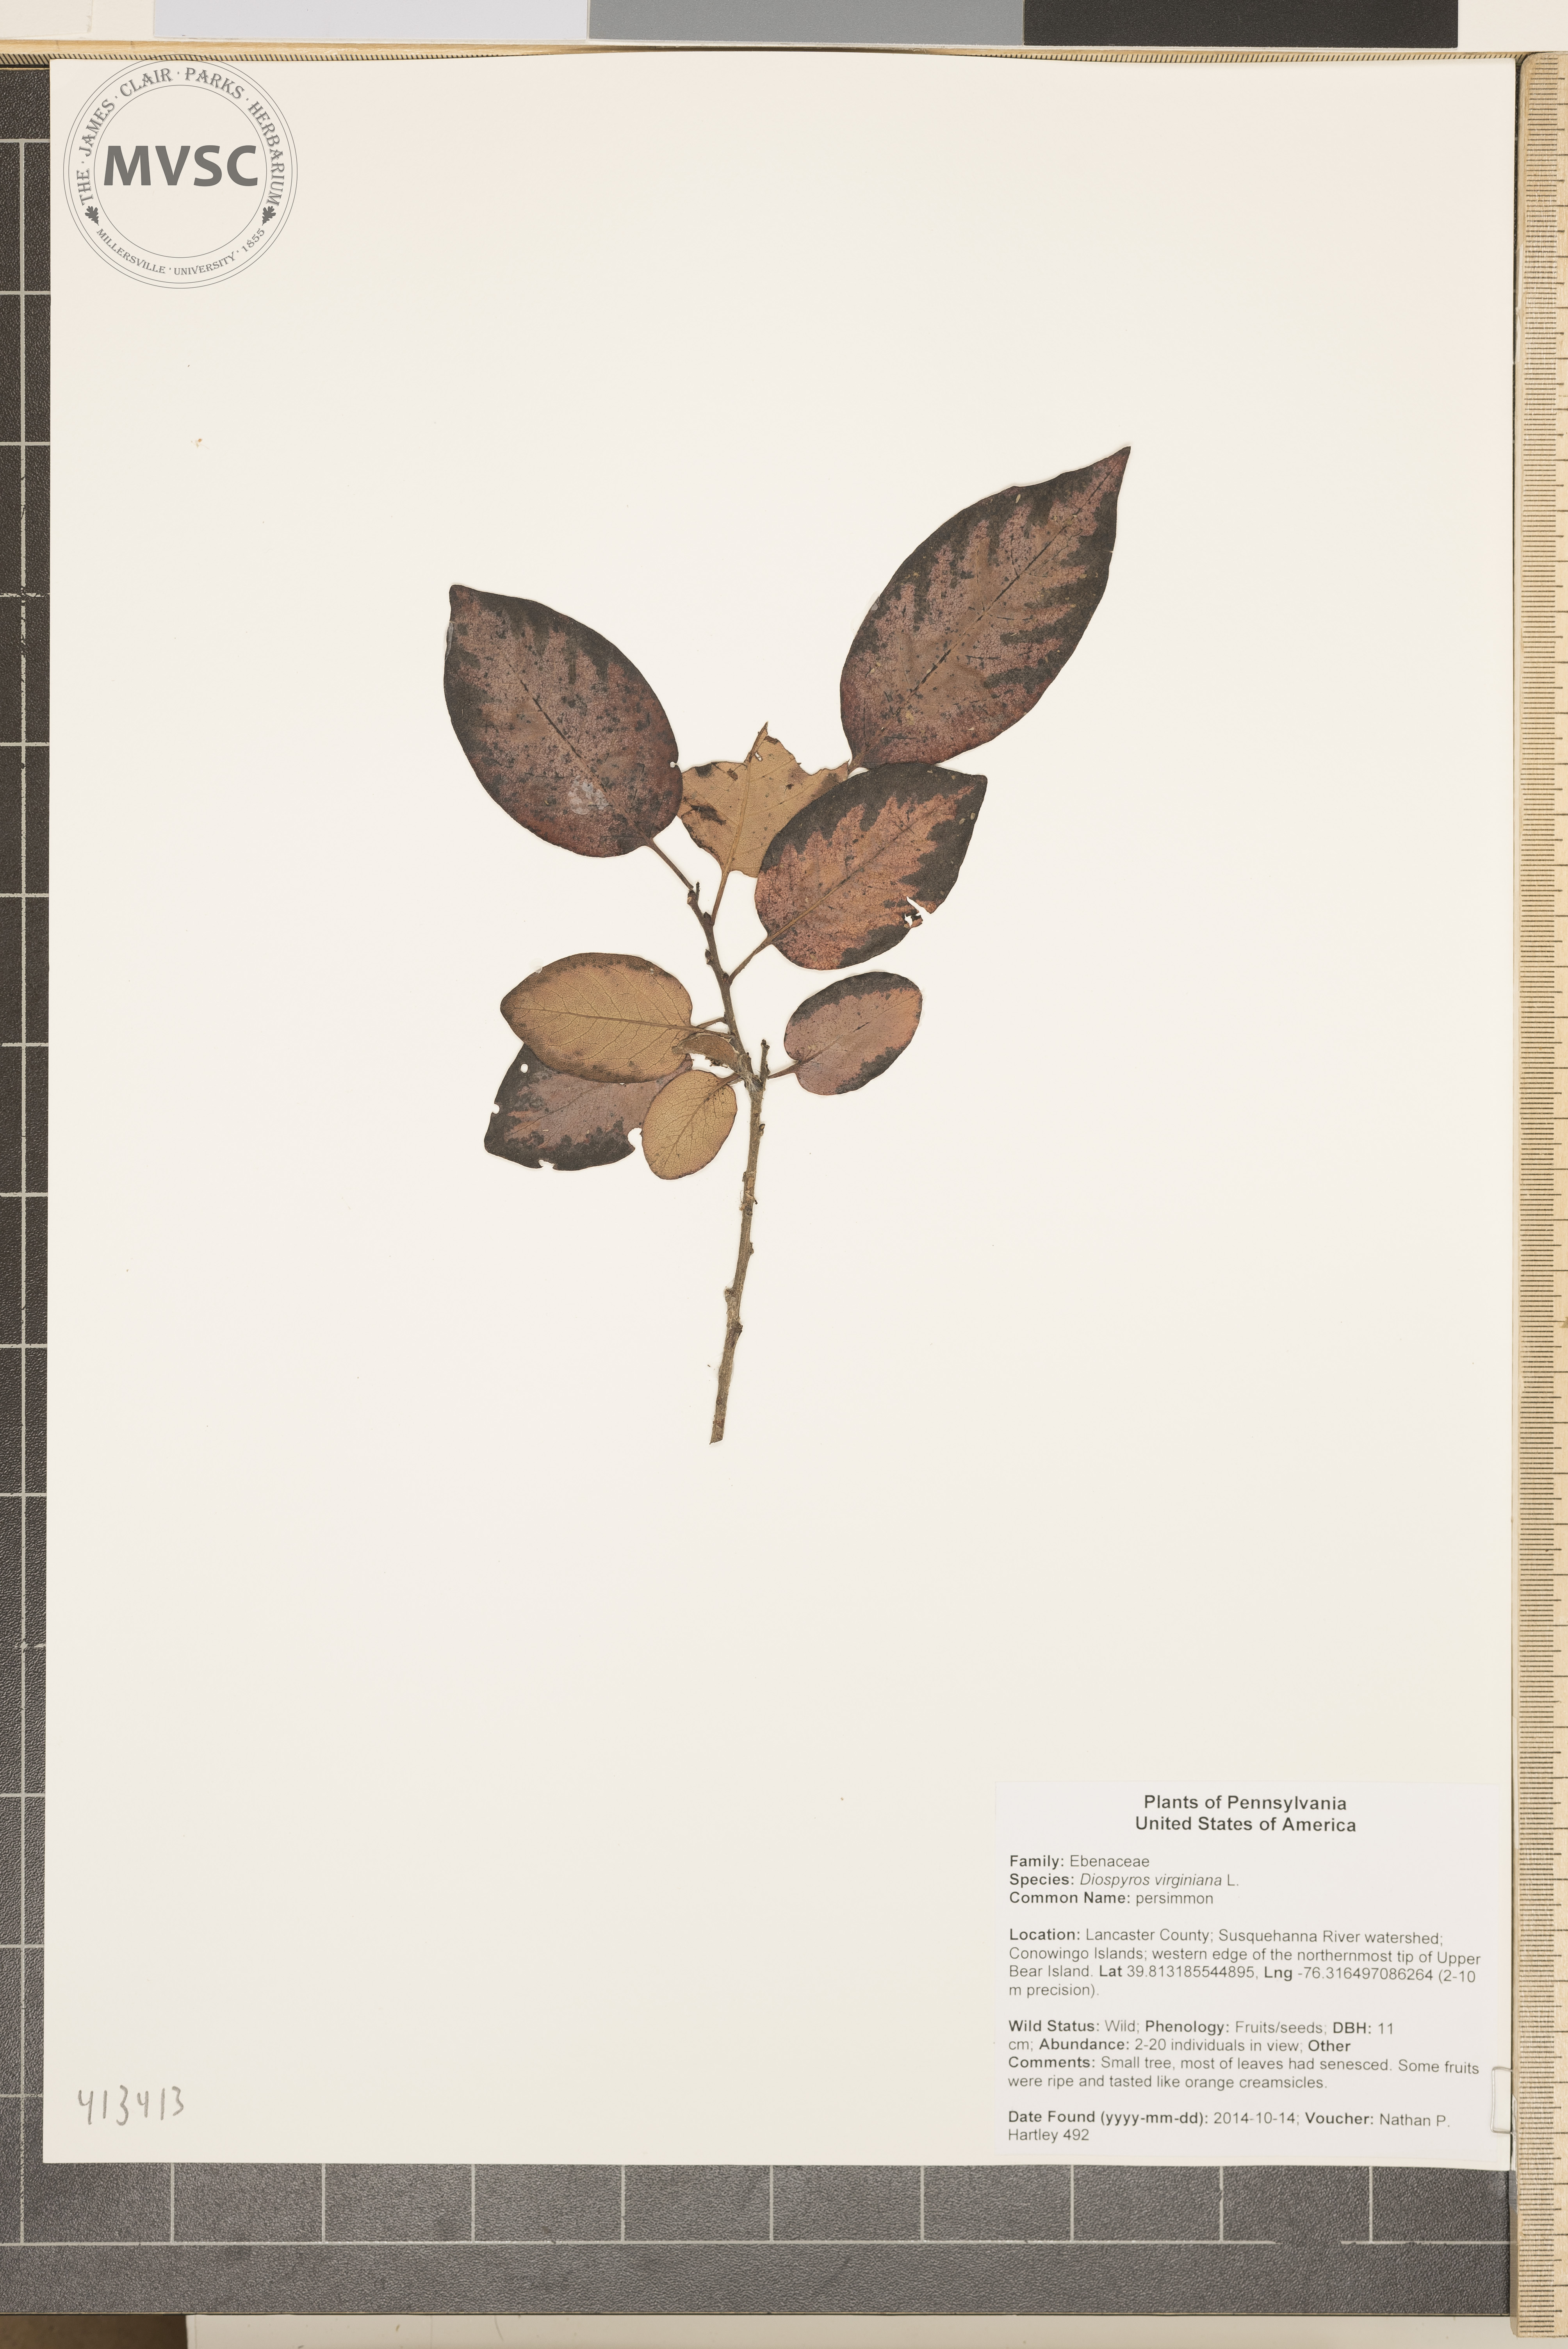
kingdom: Plantae
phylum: Tracheophyta
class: Magnoliopsida
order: Ericales
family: Ebenaceae
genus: Diospyros
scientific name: Diospyros virginiana
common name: persimmon
